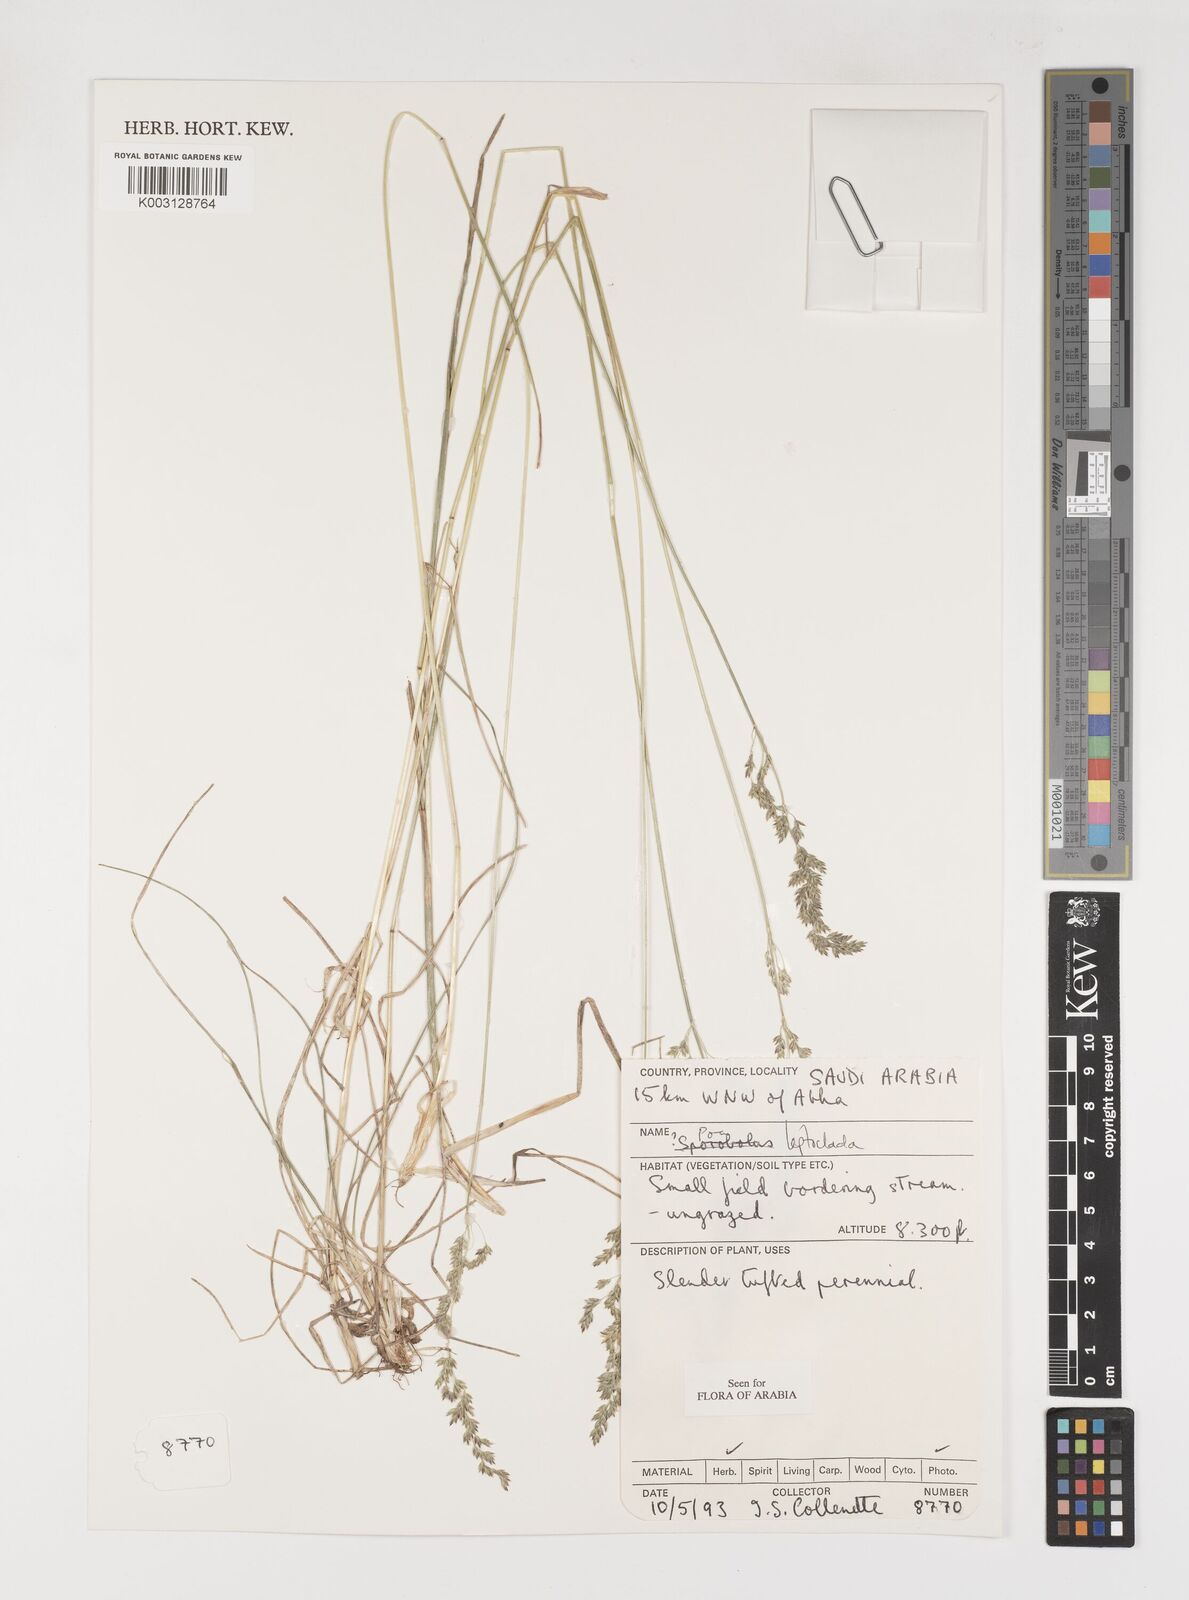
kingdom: Plantae
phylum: Tracheophyta
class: Liliopsida
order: Poales
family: Poaceae
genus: Poa
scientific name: Poa leptoclada
